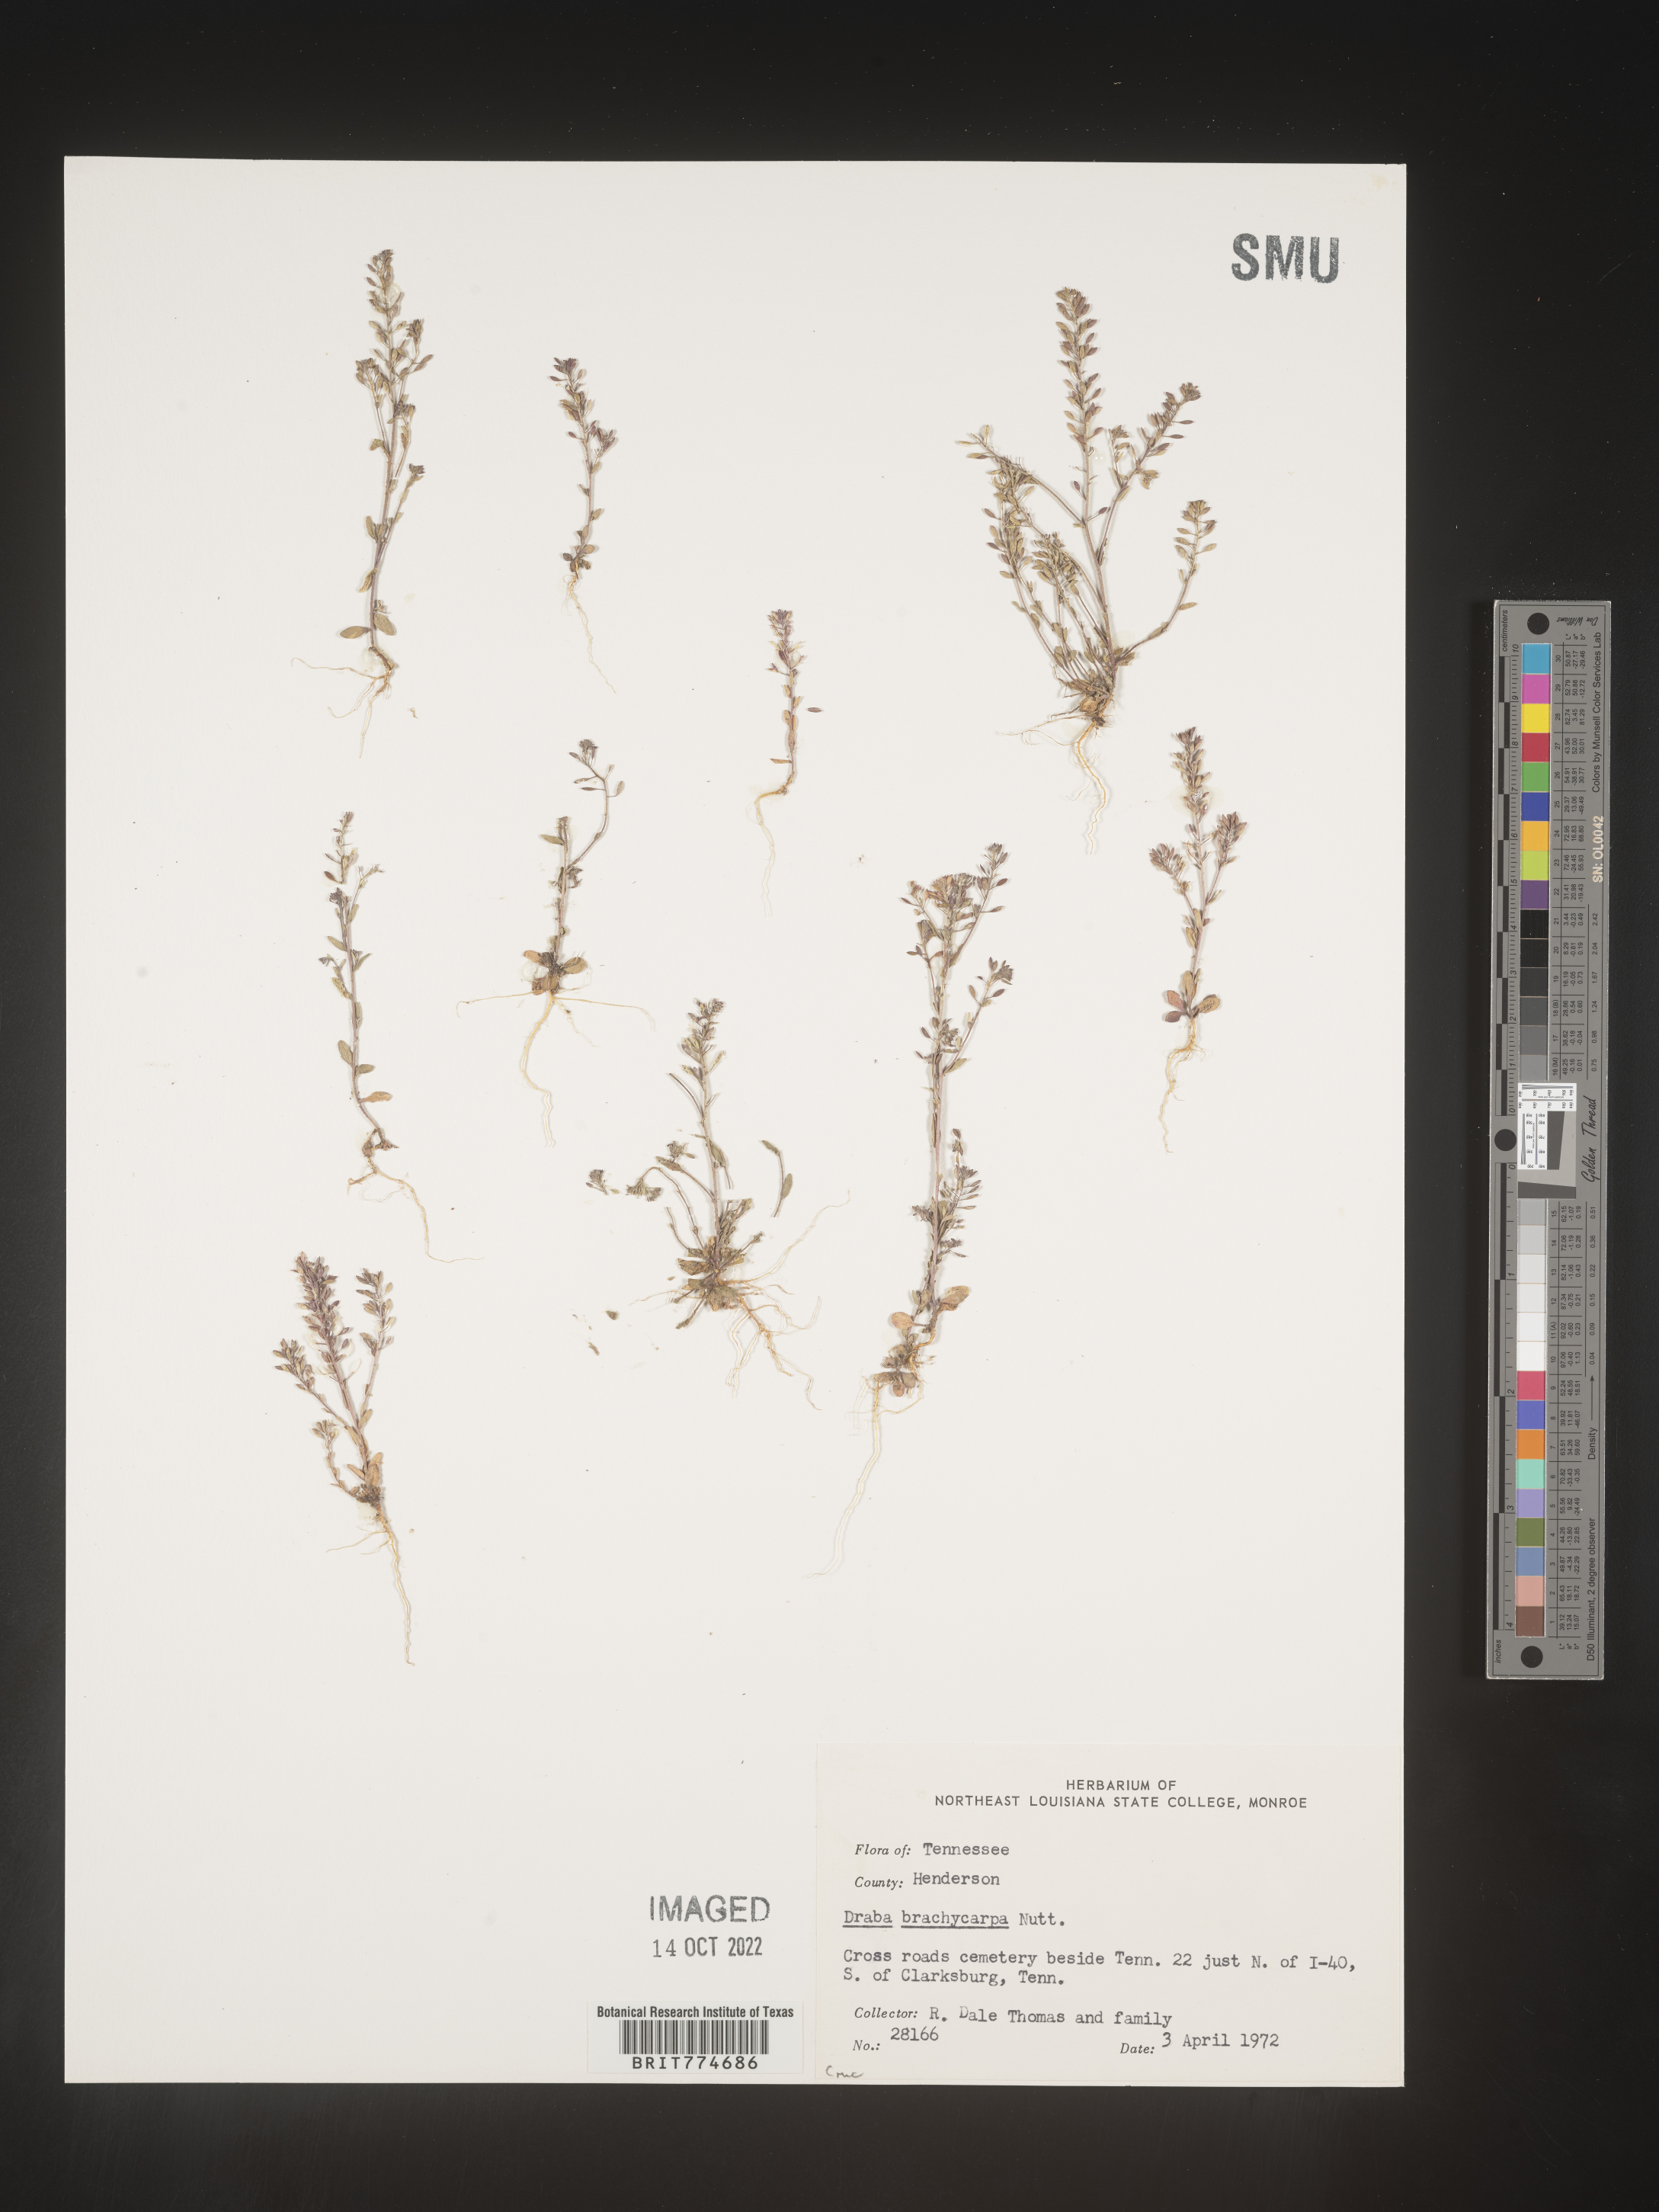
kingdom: Plantae
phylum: Tracheophyta
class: Magnoliopsida
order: Brassicales
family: Brassicaceae
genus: Abdra
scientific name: Abdra brachycarpa
